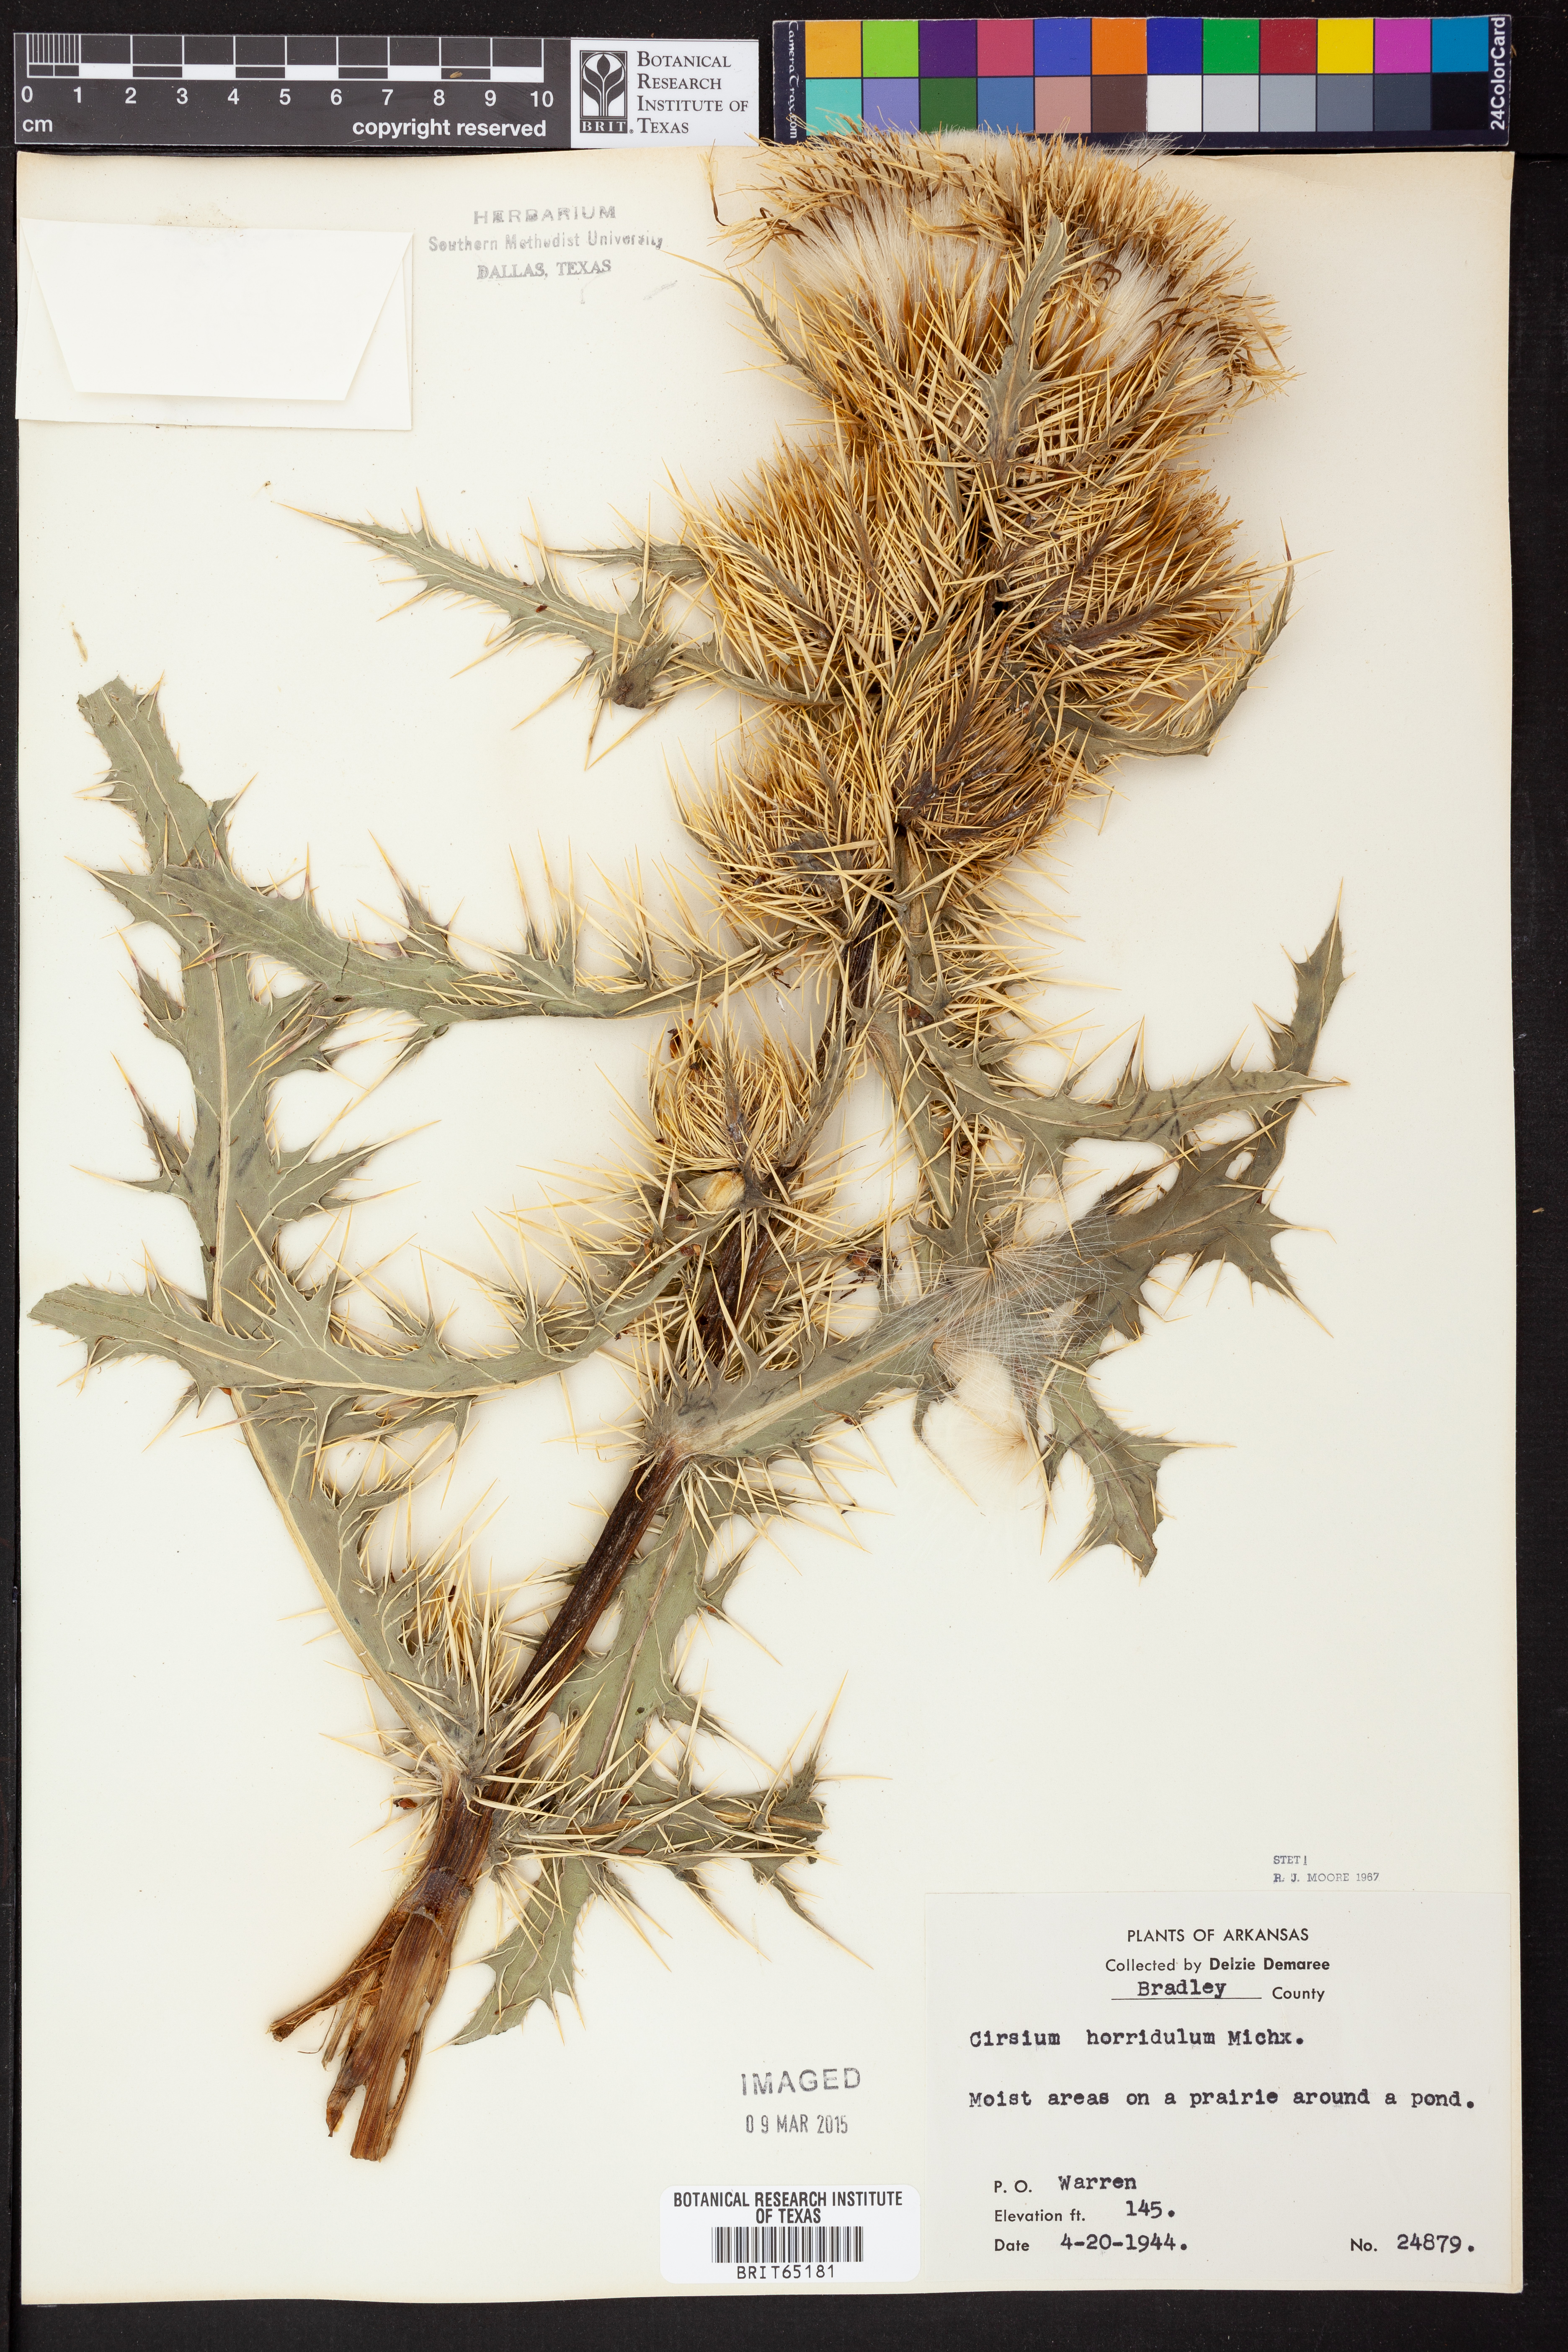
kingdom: Plantae
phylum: Tracheophyta
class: Magnoliopsida
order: Asterales
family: Asteraceae
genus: Cirsium
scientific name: Cirsium horridulum
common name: Bristly thistle
